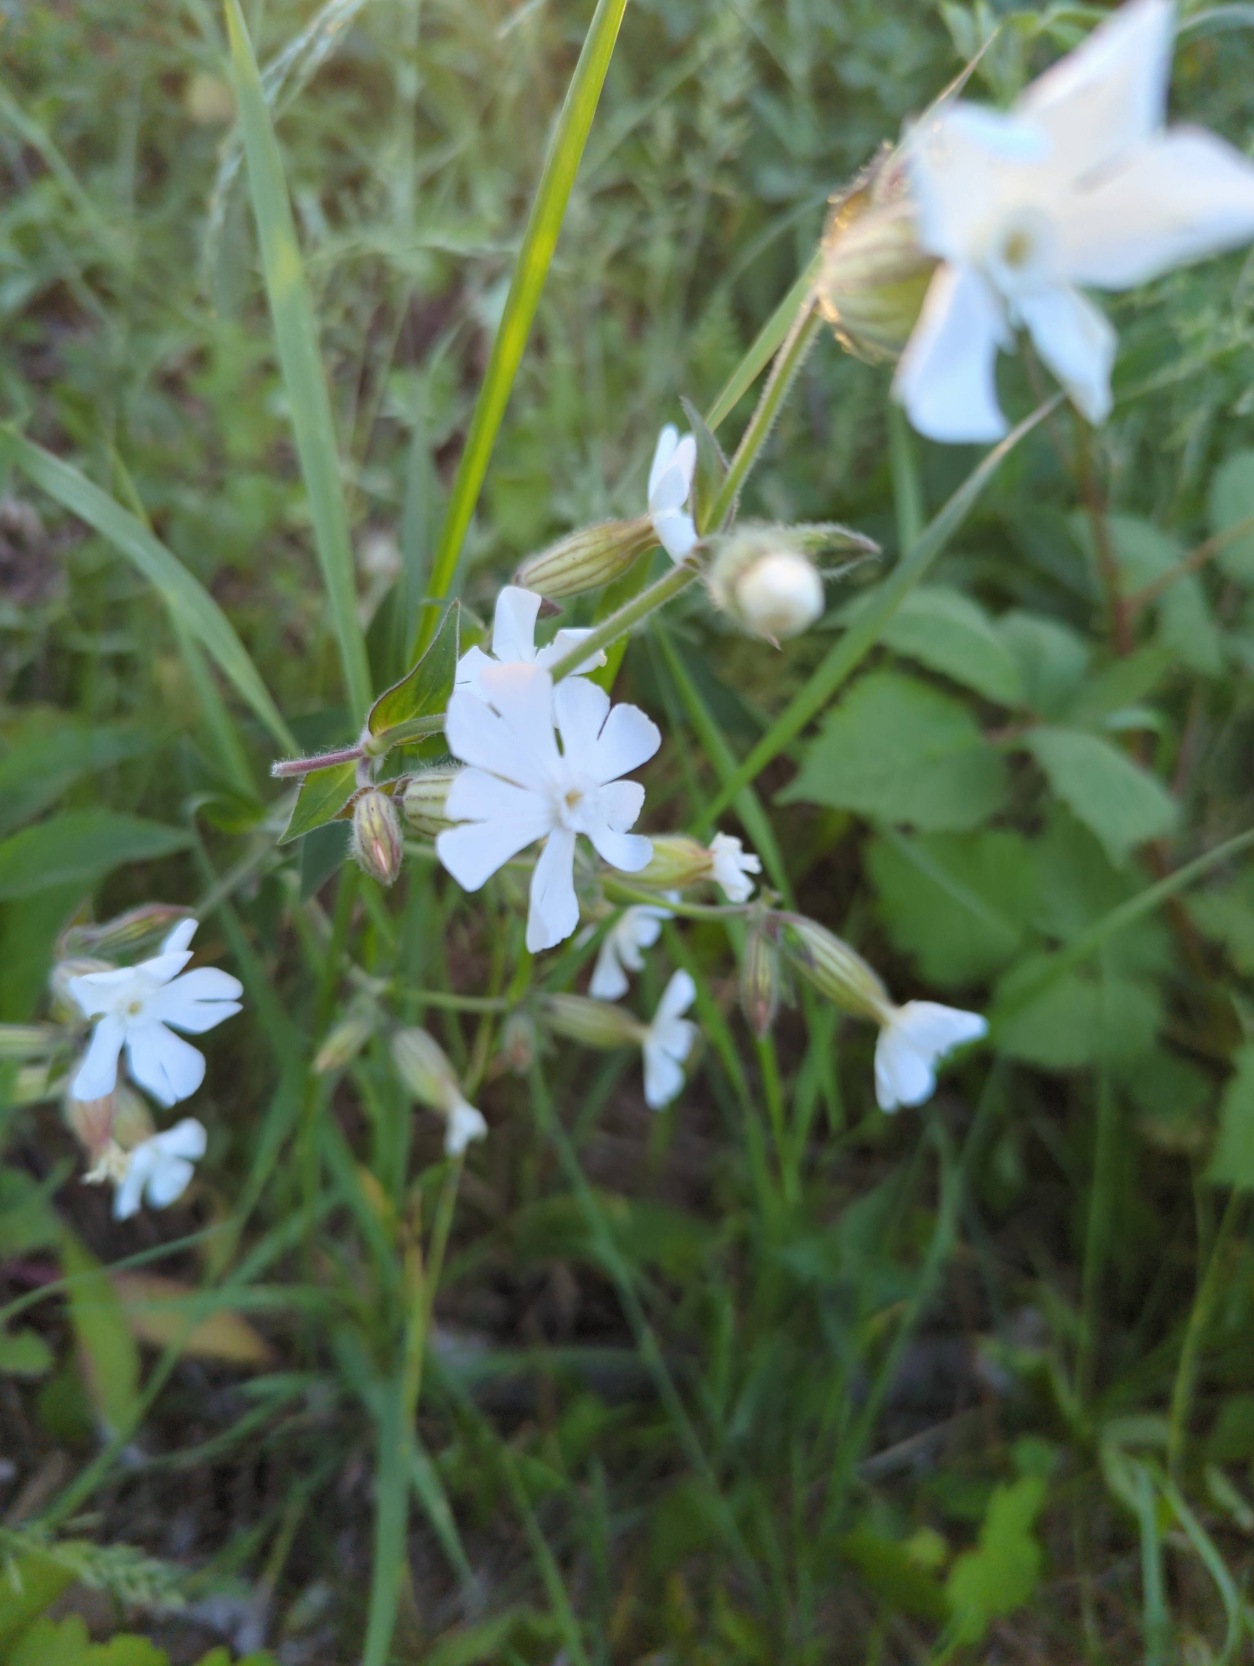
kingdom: Plantae
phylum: Tracheophyta
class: Magnoliopsida
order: Caryophyllales
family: Caryophyllaceae
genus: Silene
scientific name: Silene latifolia
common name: Aftenpragtstjerne
